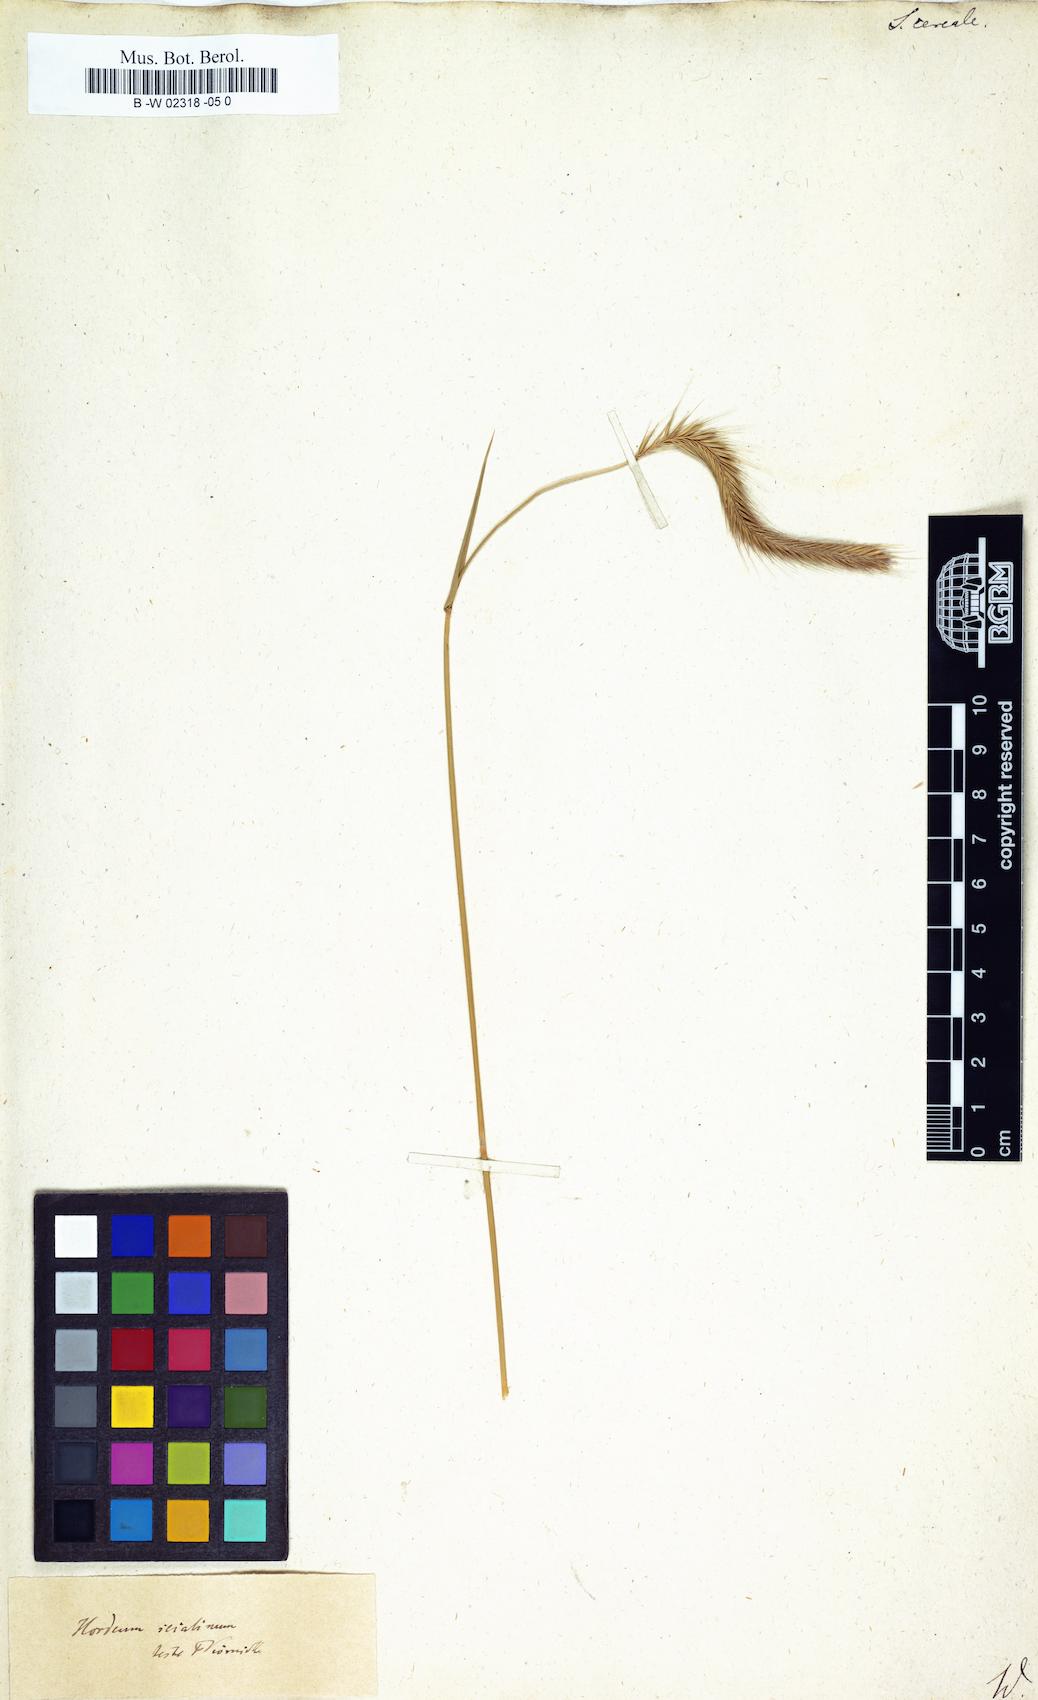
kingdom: Plantae
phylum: Tracheophyta
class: Liliopsida
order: Poales
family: Poaceae
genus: Secale
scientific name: Secale cereale
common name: Rye
